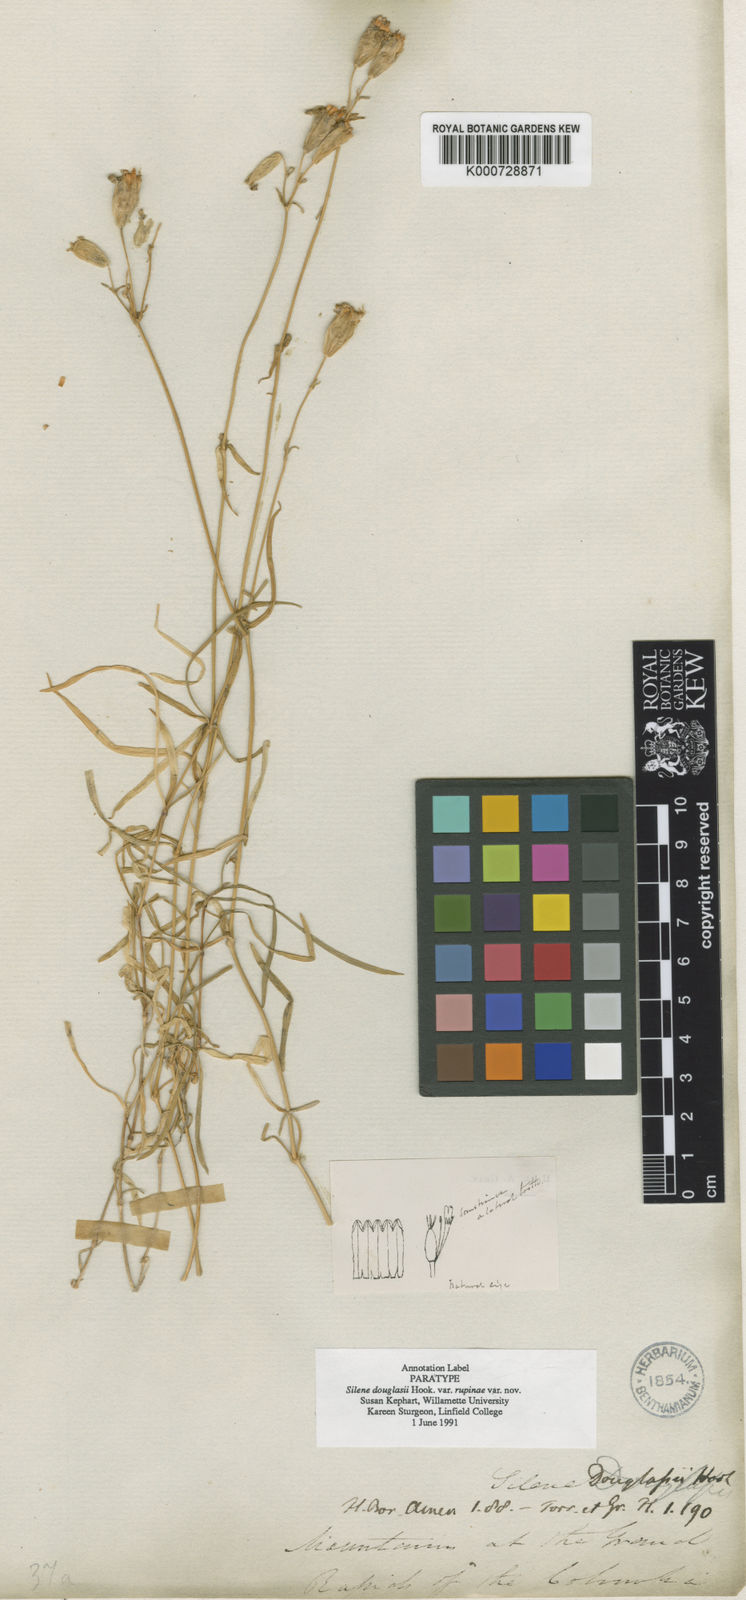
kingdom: Plantae
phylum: Tracheophyta
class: Magnoliopsida
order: Caryophyllales
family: Caryophyllaceae
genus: Silene
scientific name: Silene douglasii
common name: Douglas's catchfly
